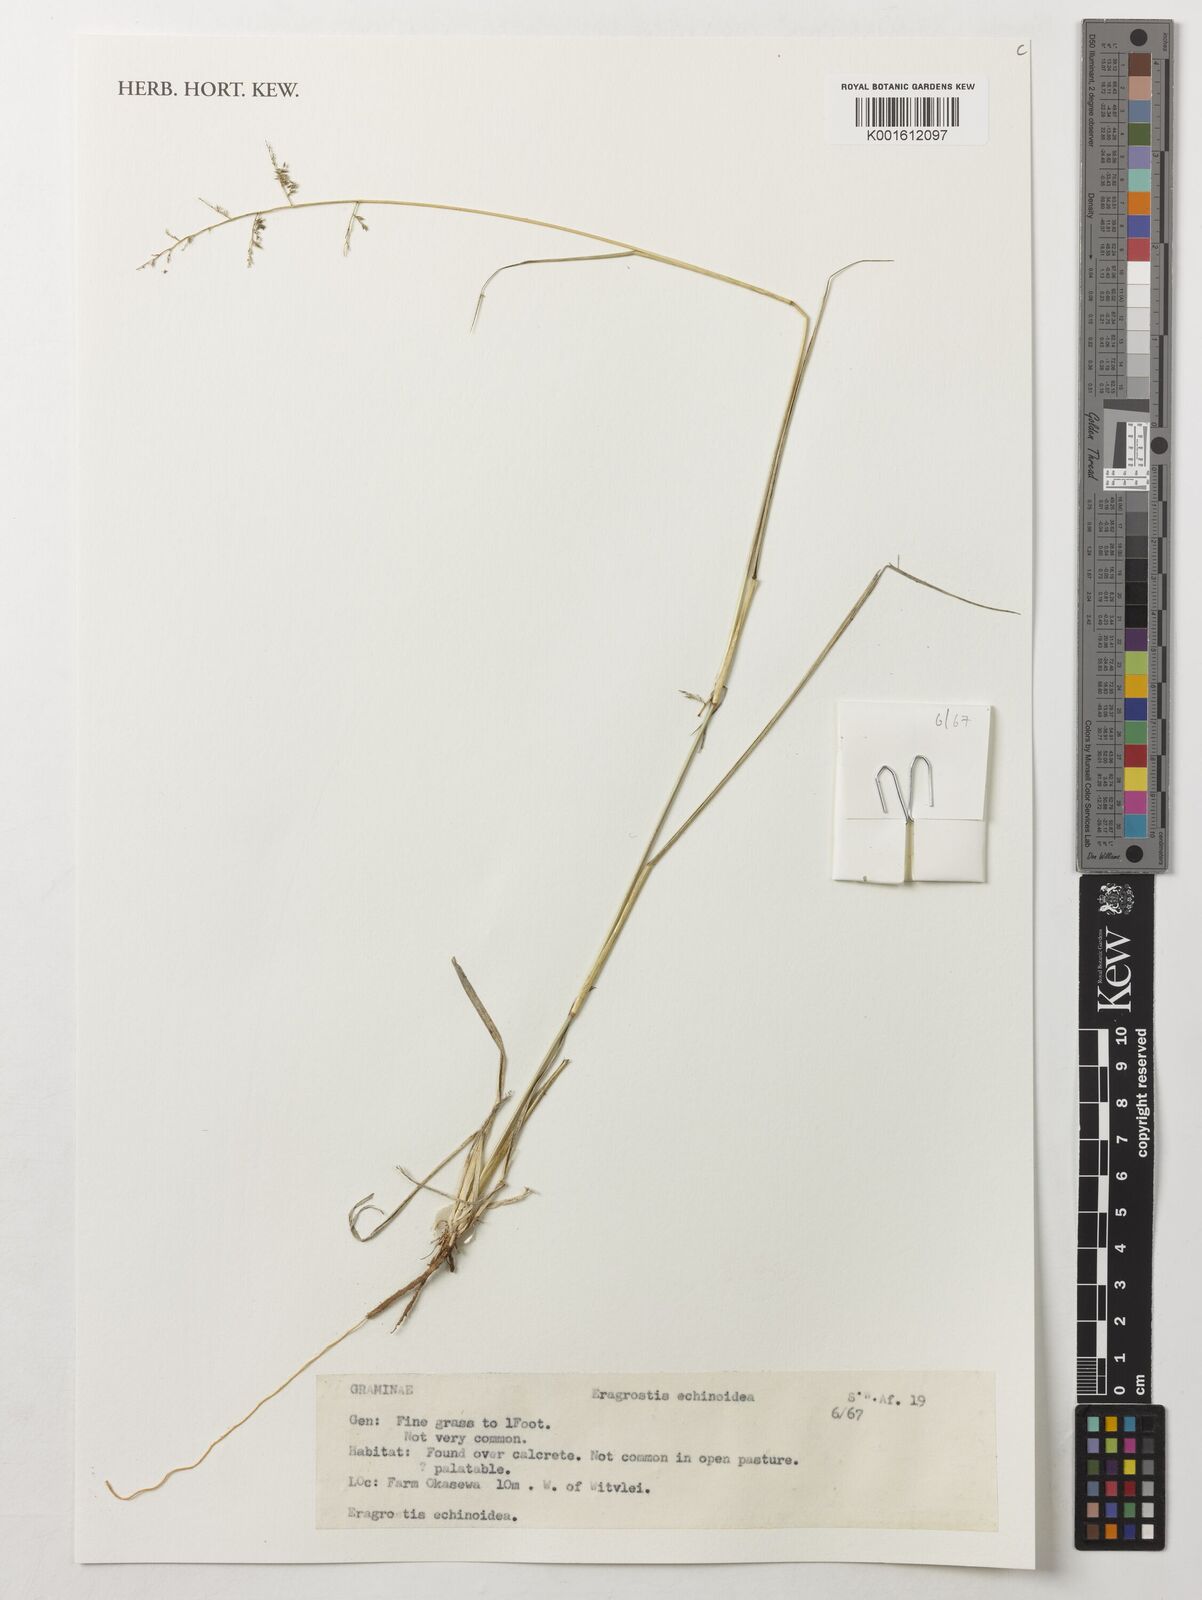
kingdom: Plantae
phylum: Tracheophyta
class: Liliopsida
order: Poales
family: Poaceae
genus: Eragrostis
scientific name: Eragrostis
